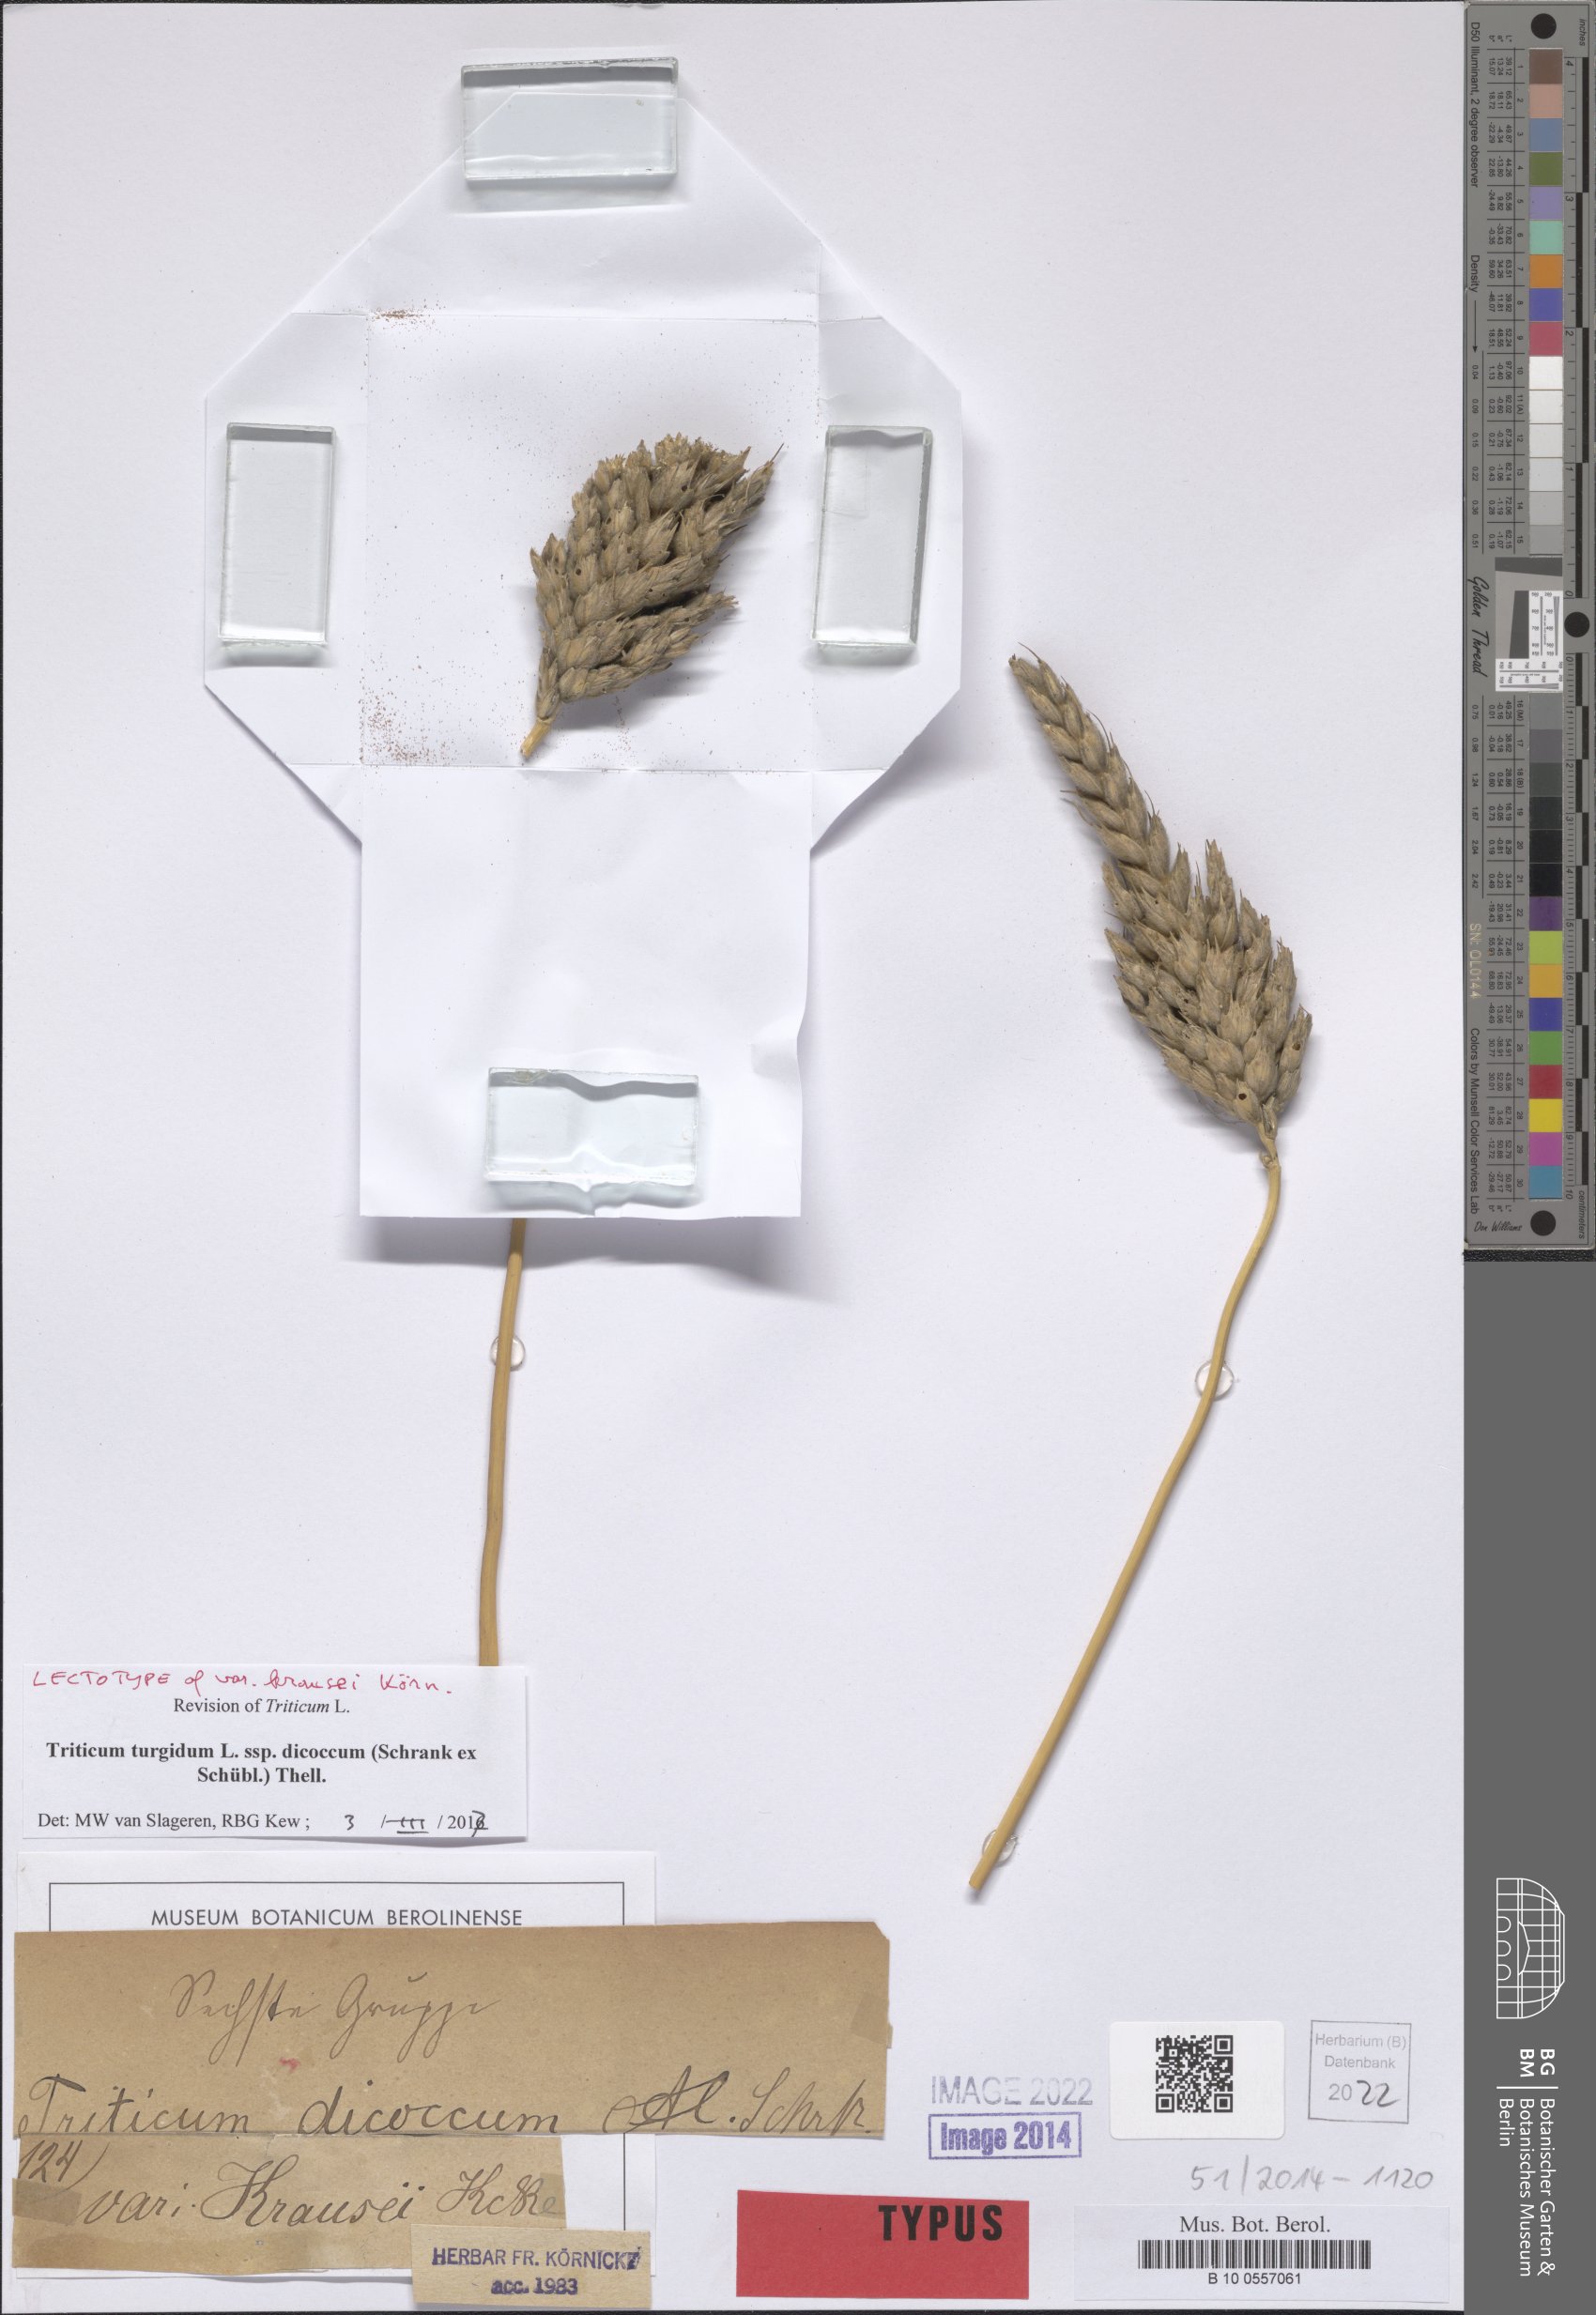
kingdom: Plantae
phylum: Tracheophyta
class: Liliopsida
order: Poales
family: Poaceae
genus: Triticum
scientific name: Triticum turgidum
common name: Rivet wheat
